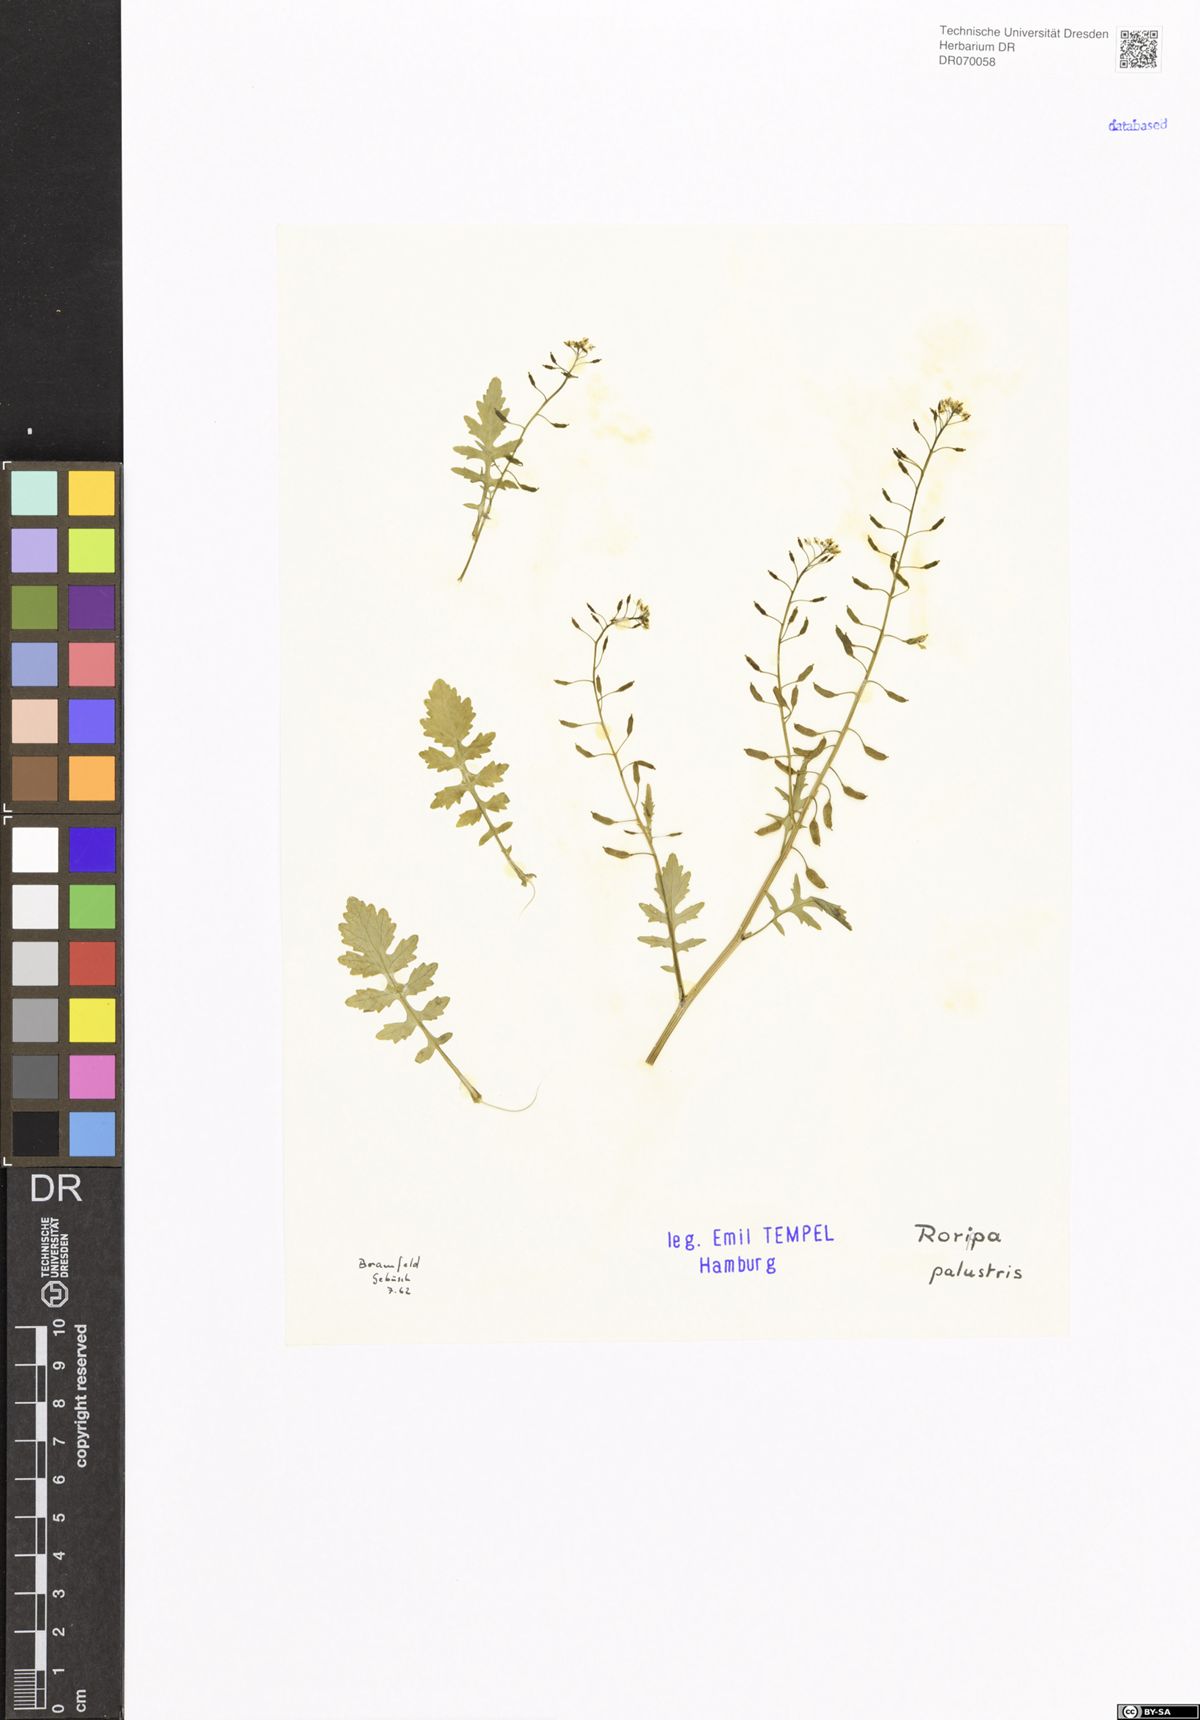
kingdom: Plantae
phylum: Tracheophyta
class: Magnoliopsida
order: Brassicales
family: Brassicaceae
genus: Rorippa
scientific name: Rorippa palustris
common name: Marsh yellow-cress
